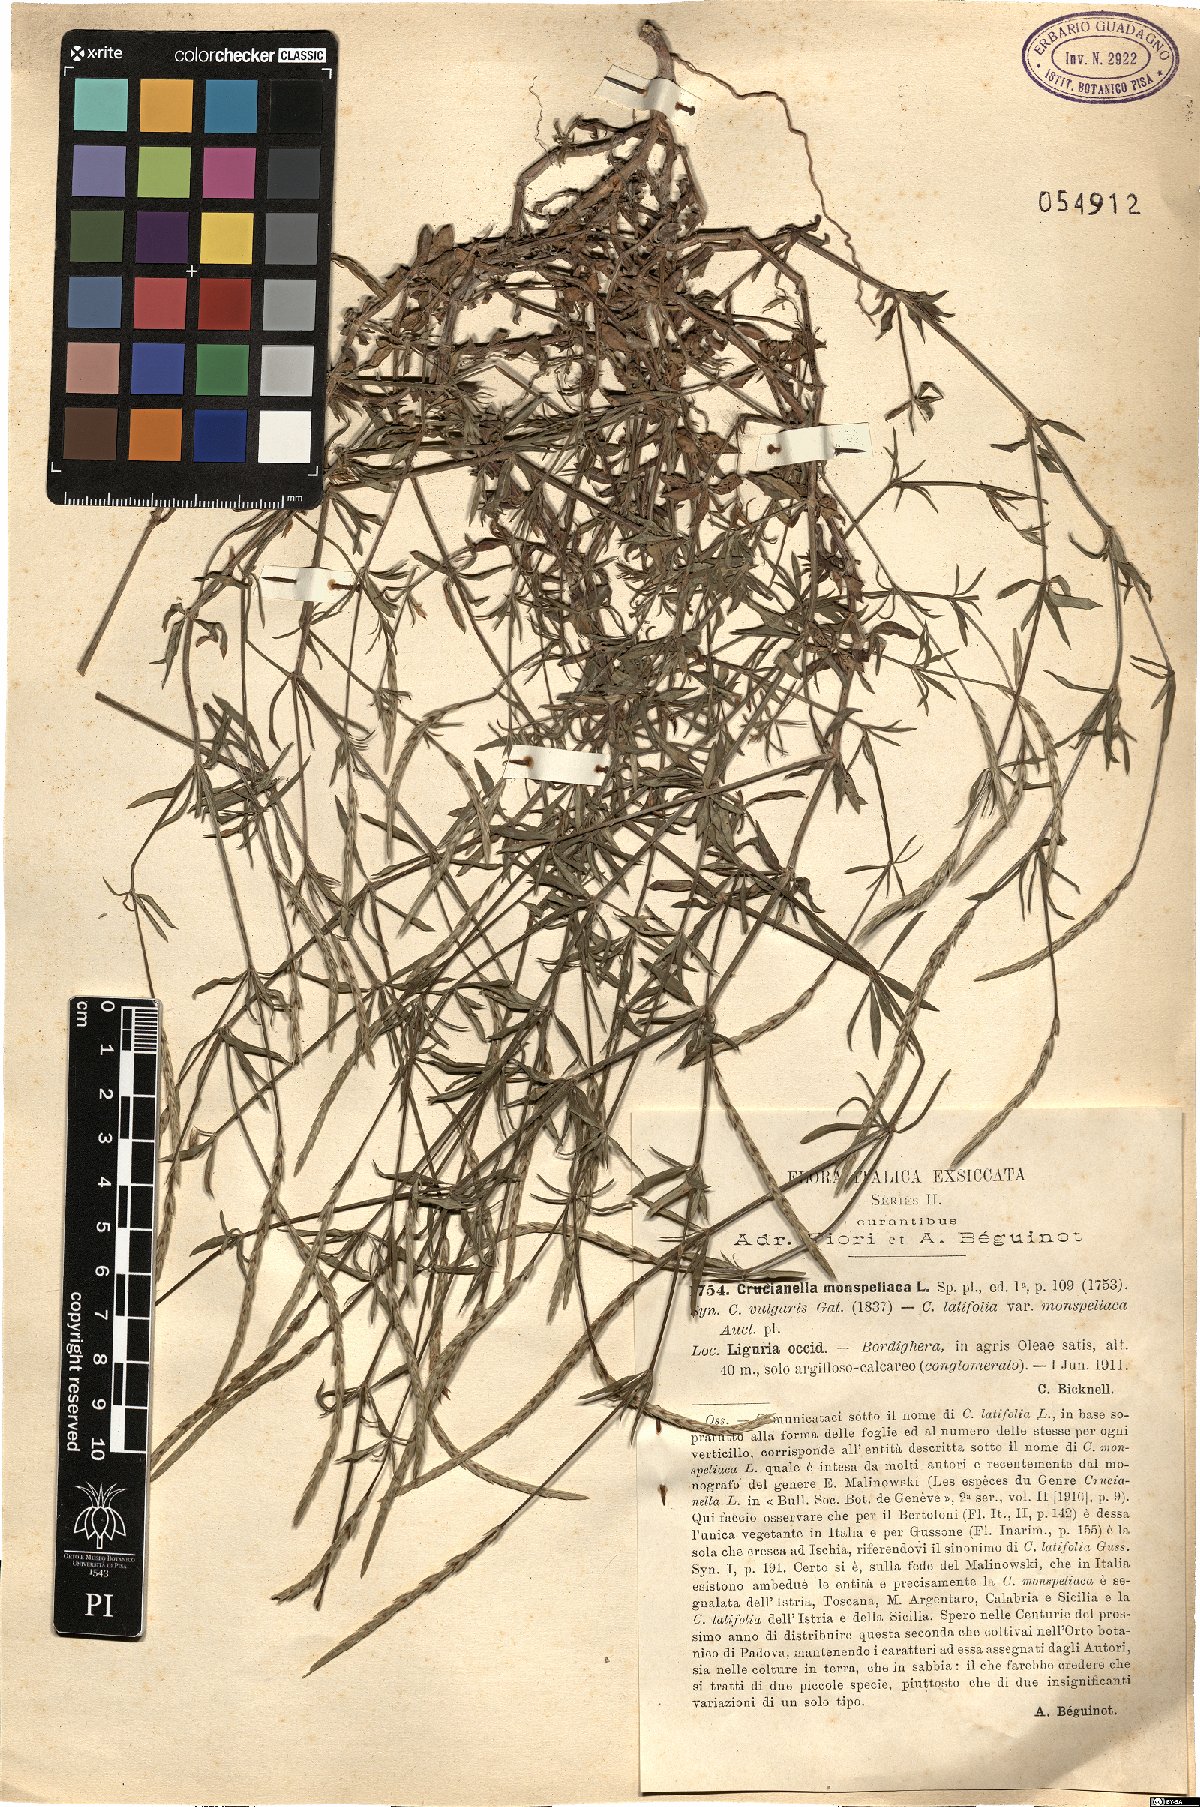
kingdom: Plantae
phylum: Tracheophyta
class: Magnoliopsida
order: Gentianales
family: Rubiaceae
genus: Crucianella
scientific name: Crucianella latifolia
